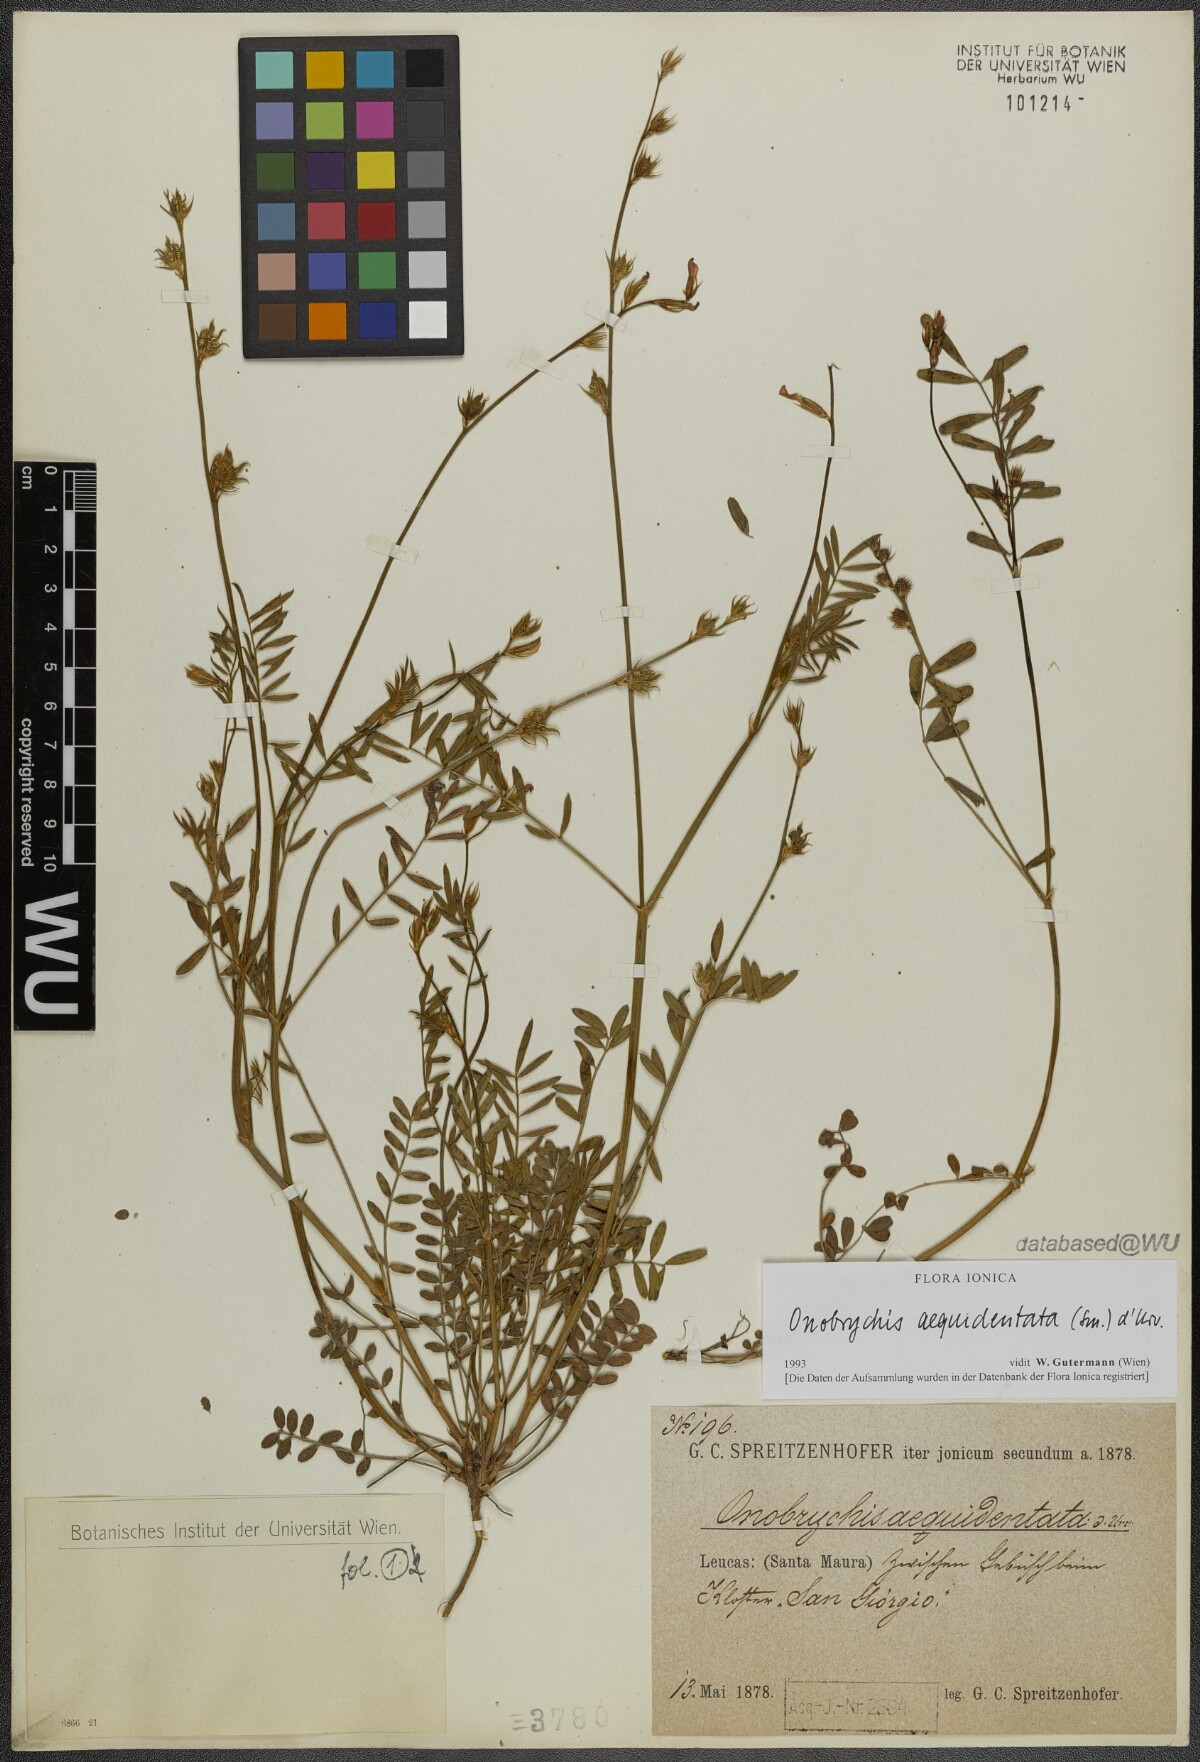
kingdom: Plantae
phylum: Tracheophyta
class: Magnoliopsida
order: Fabales
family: Fabaceae
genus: Onobrychis
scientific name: Onobrychis aequidentata
